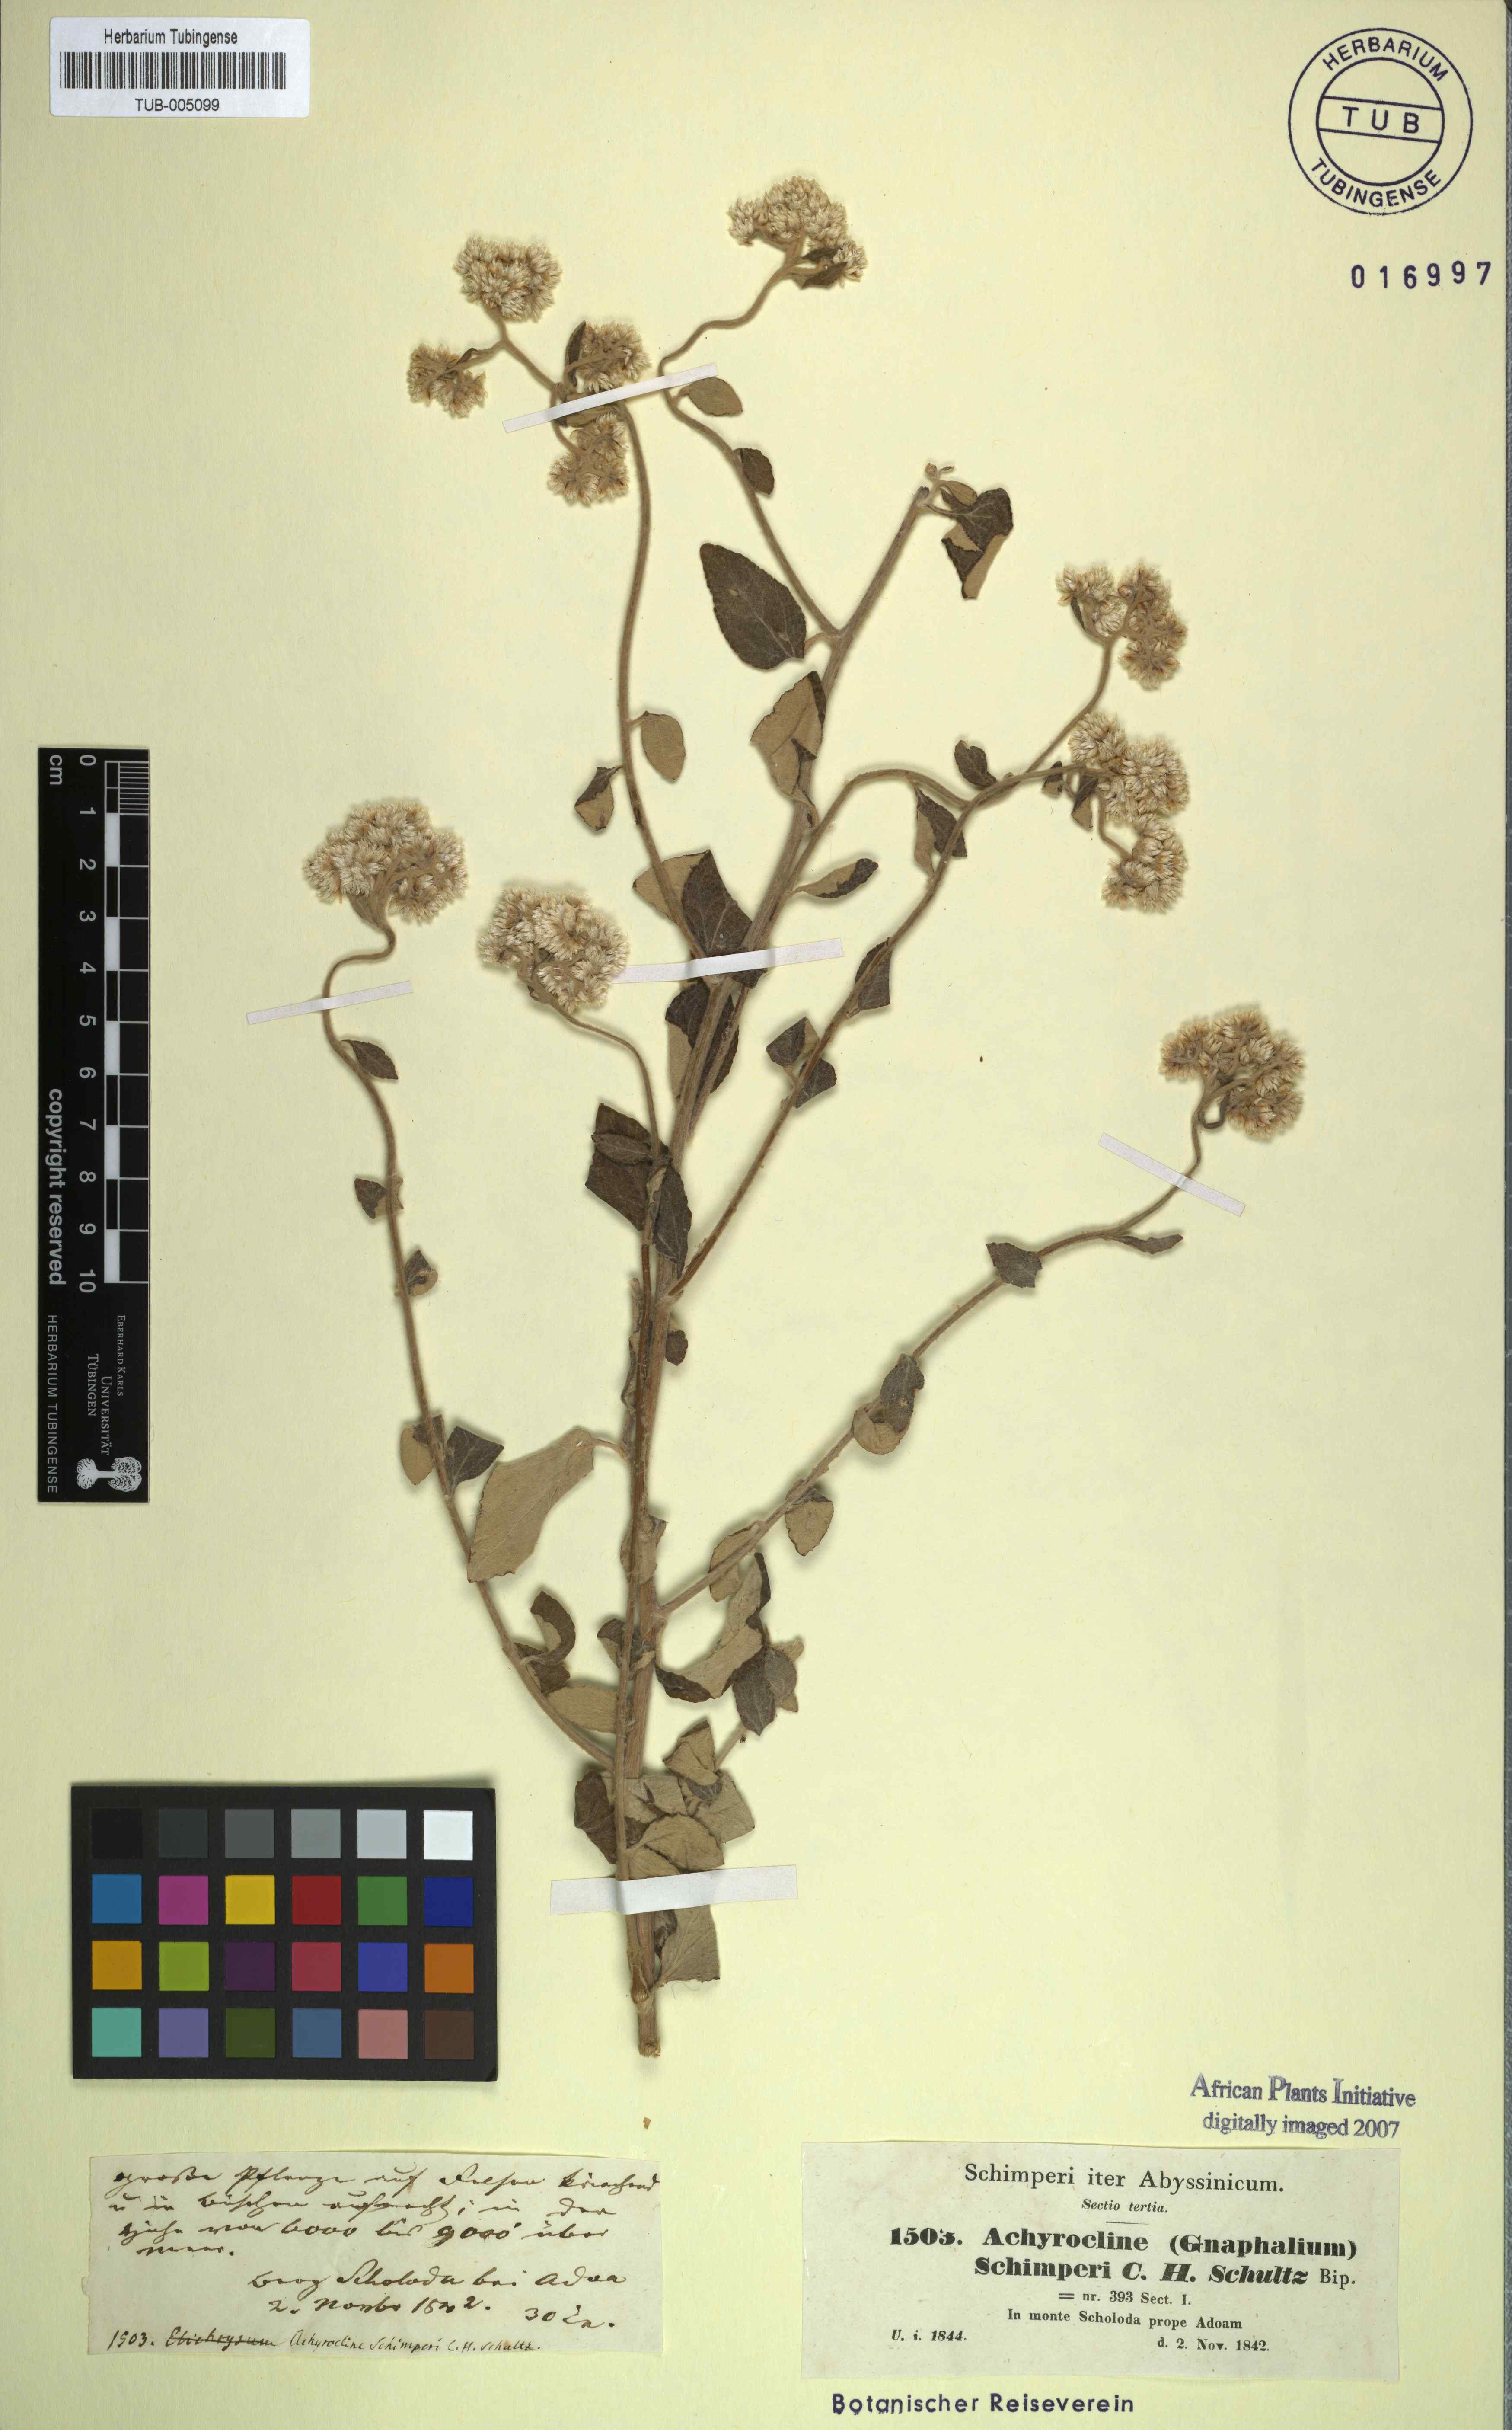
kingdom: Plantae
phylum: Tracheophyta
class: Magnoliopsida
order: Asterales
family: Asteraceae
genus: Helichrysum
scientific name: Helichrysum schimperi
